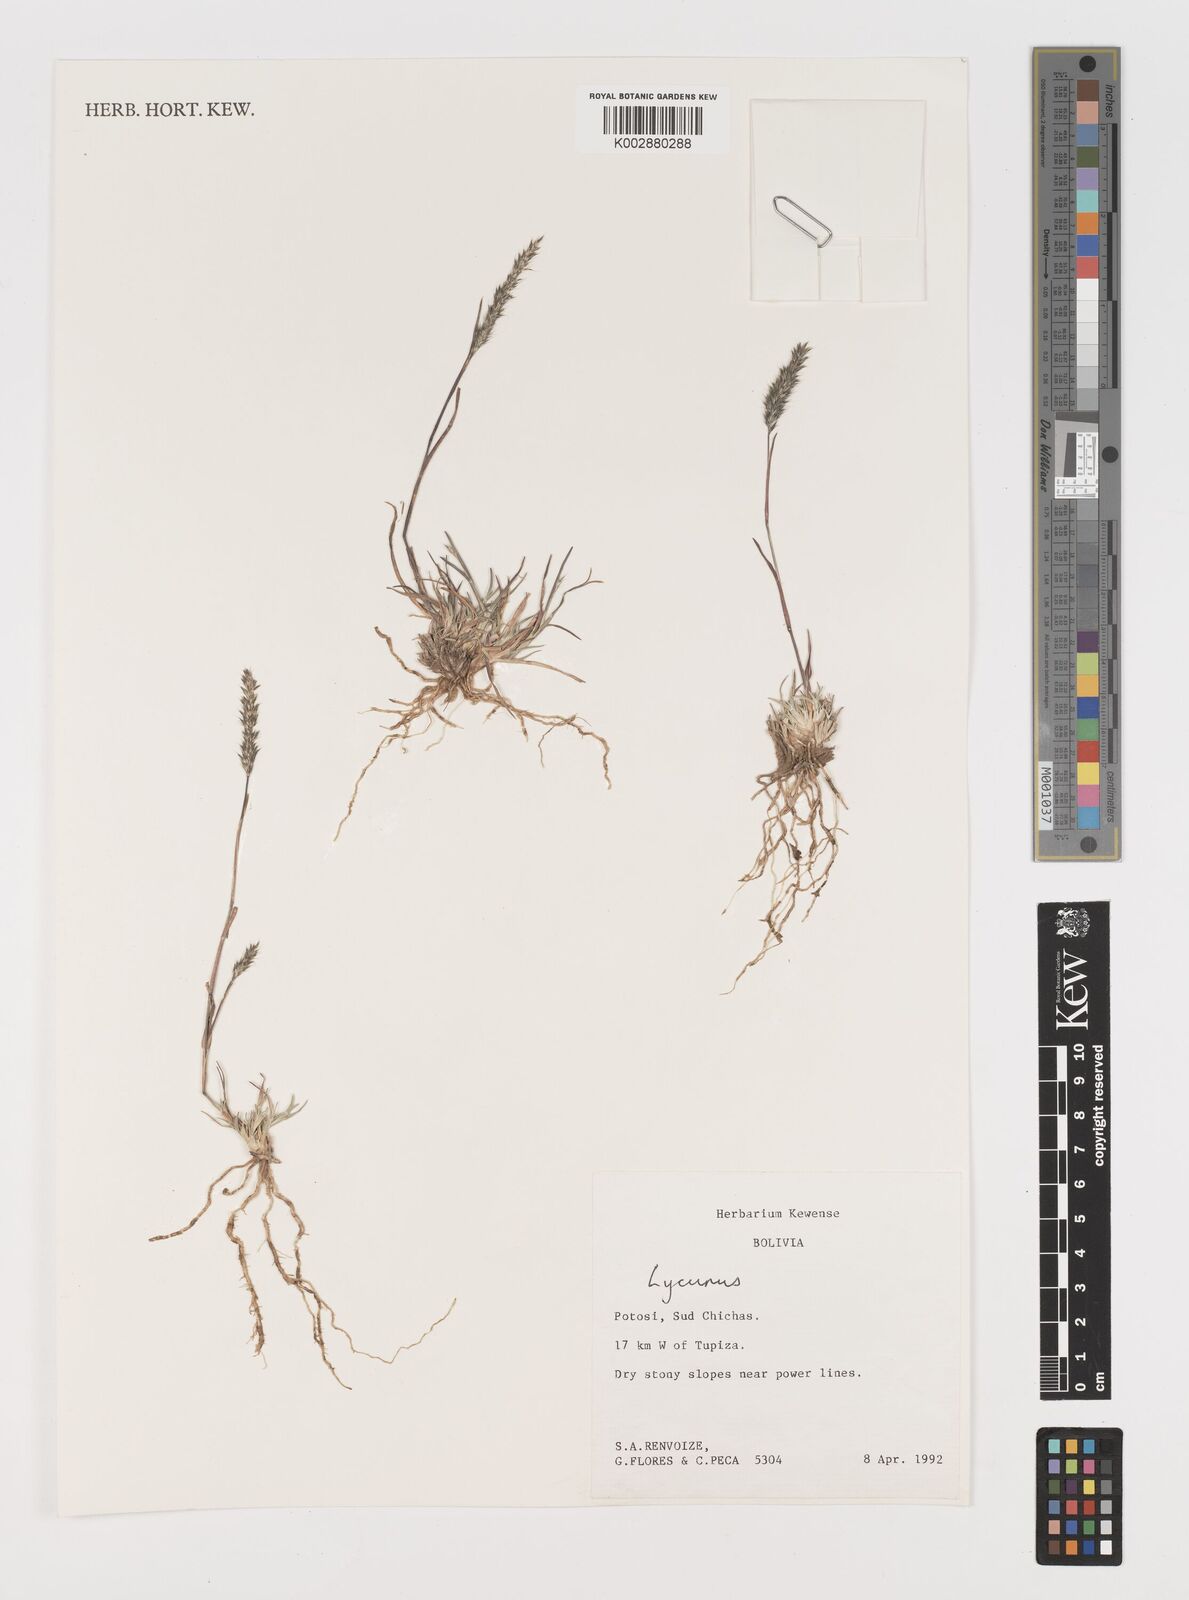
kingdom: Plantae
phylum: Tracheophyta
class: Liliopsida
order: Poales
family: Poaceae
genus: Muhlenbergia
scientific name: Muhlenbergia phleoides
